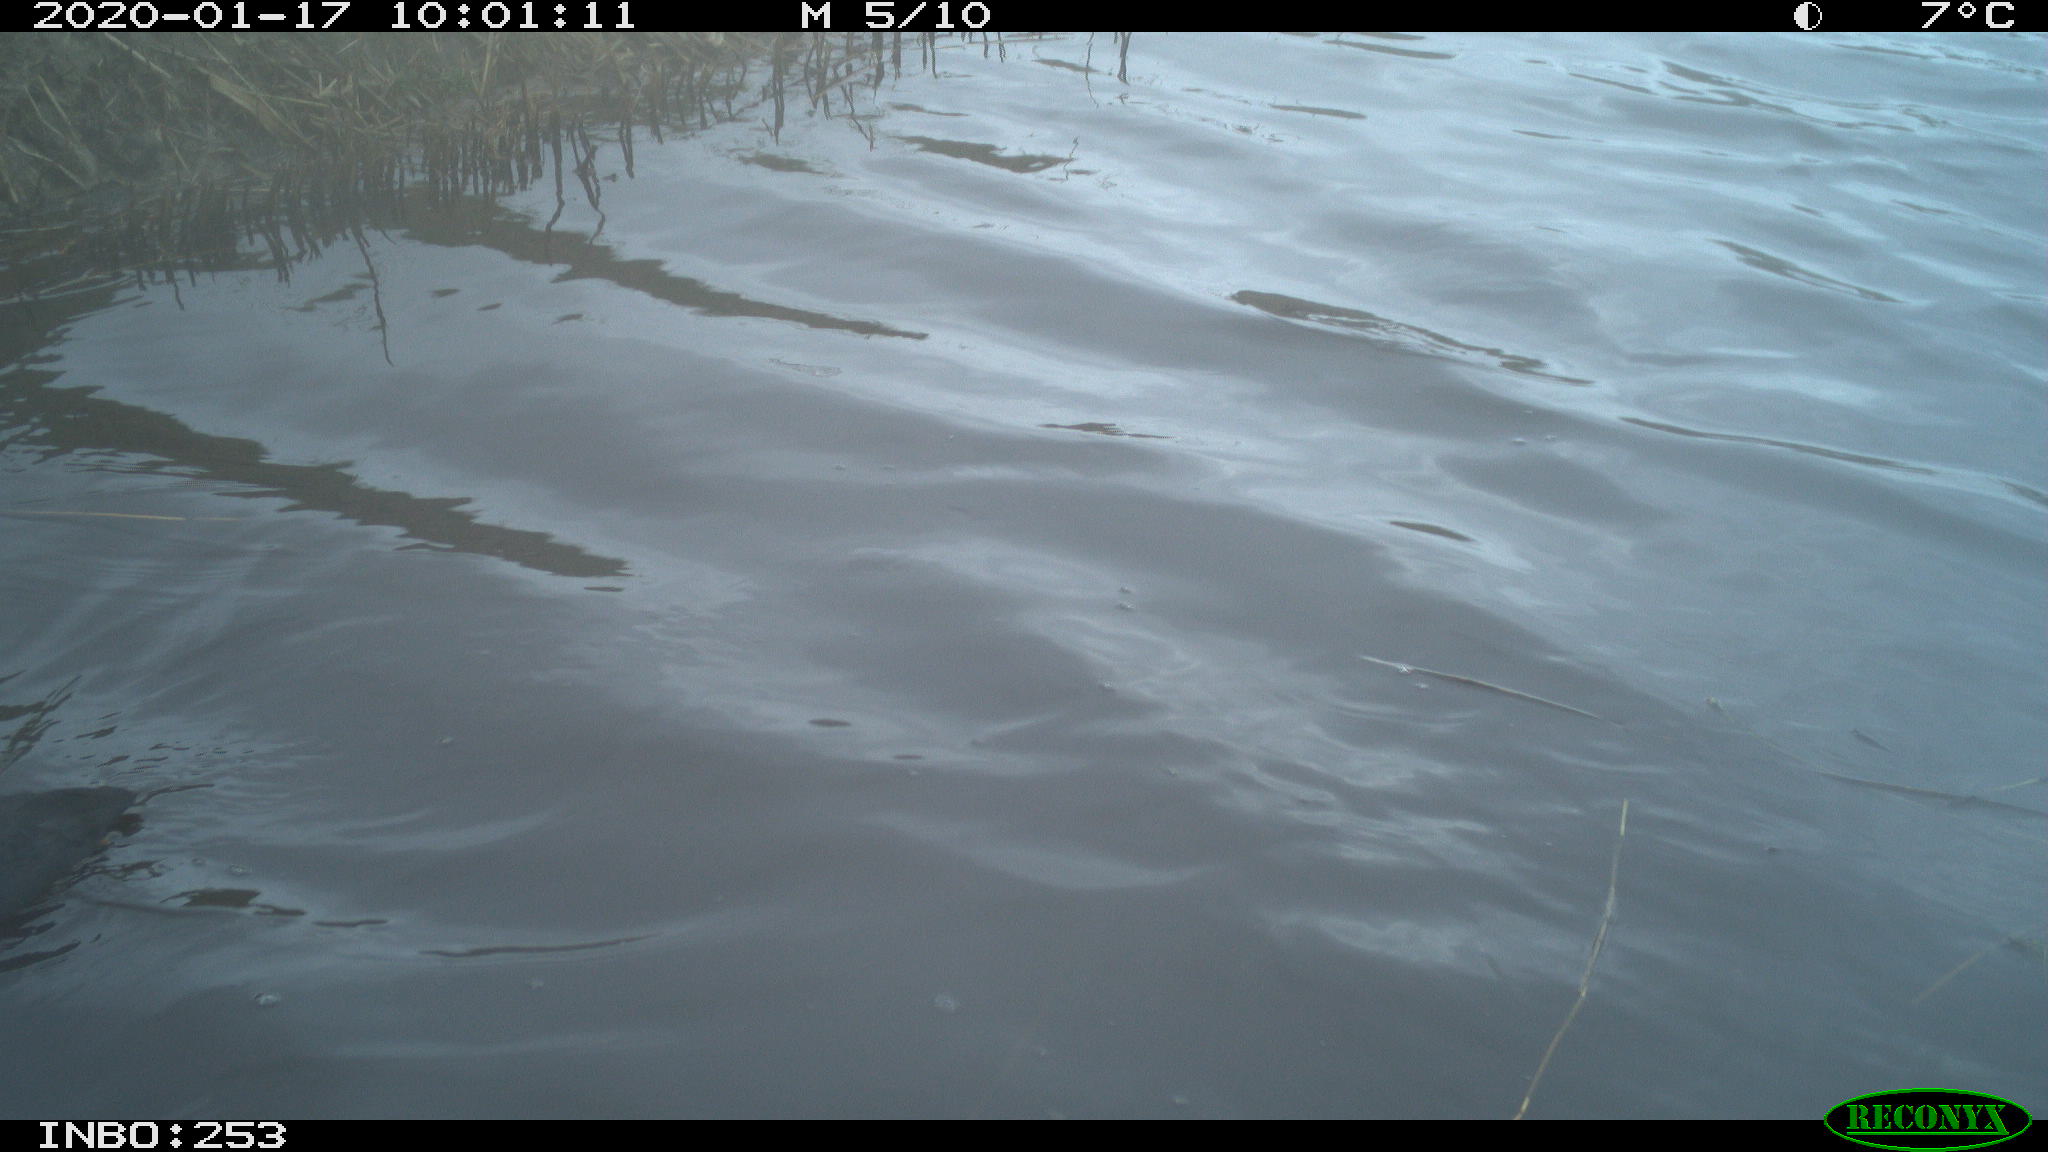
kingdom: Animalia
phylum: Chordata
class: Aves
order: Gruiformes
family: Rallidae
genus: Fulica
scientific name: Fulica atra
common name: Eurasian coot
